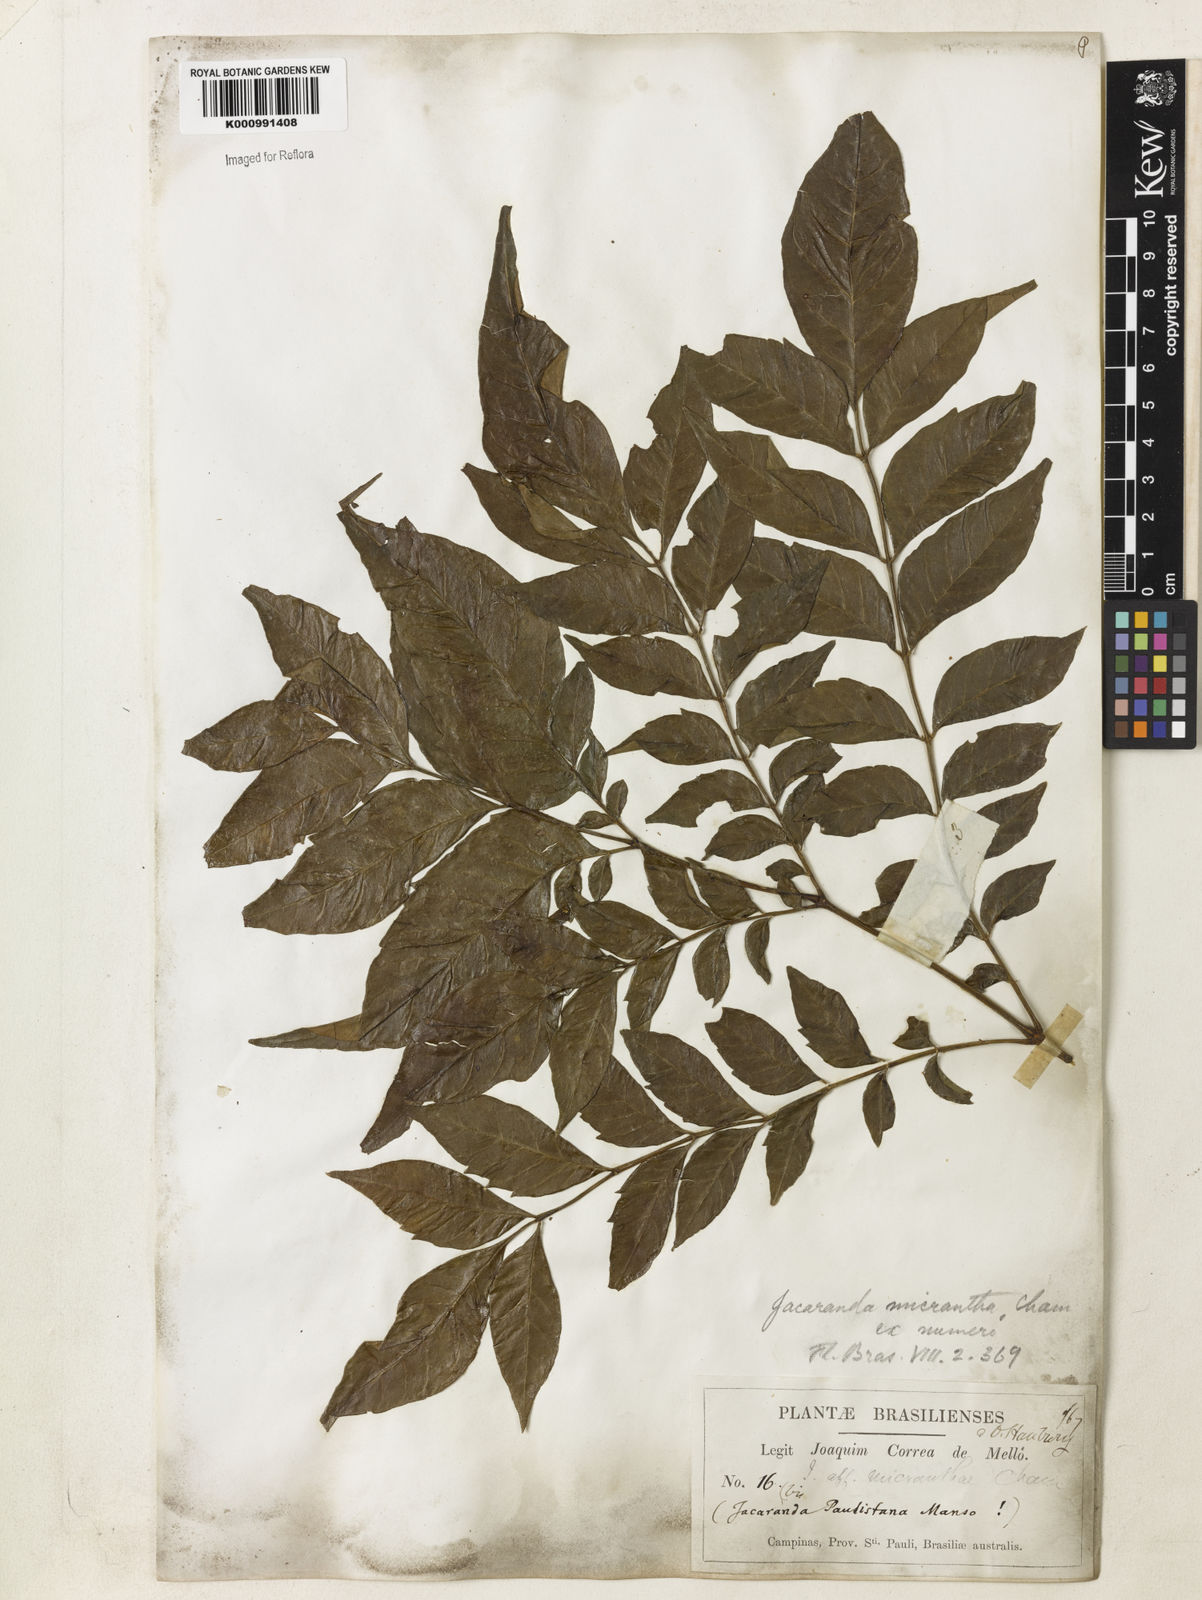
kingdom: Plantae
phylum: Tracheophyta
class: Magnoliopsida
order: Lamiales
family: Bignoniaceae
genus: Jacaranda
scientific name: Jacaranda micrantha
